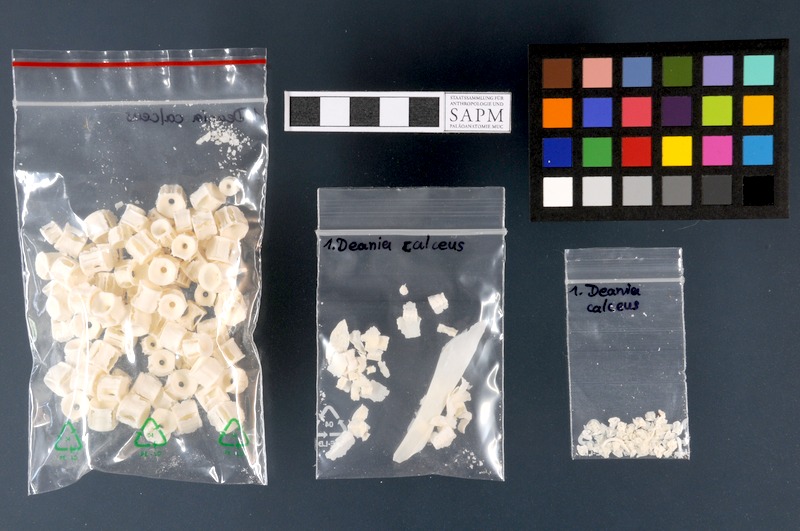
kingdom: Animalia
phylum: Chordata
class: Elasmobranchii
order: Squaliformes
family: Centrophoridae
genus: Deania
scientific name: Deania calcea
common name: Birdbeak dogfish
